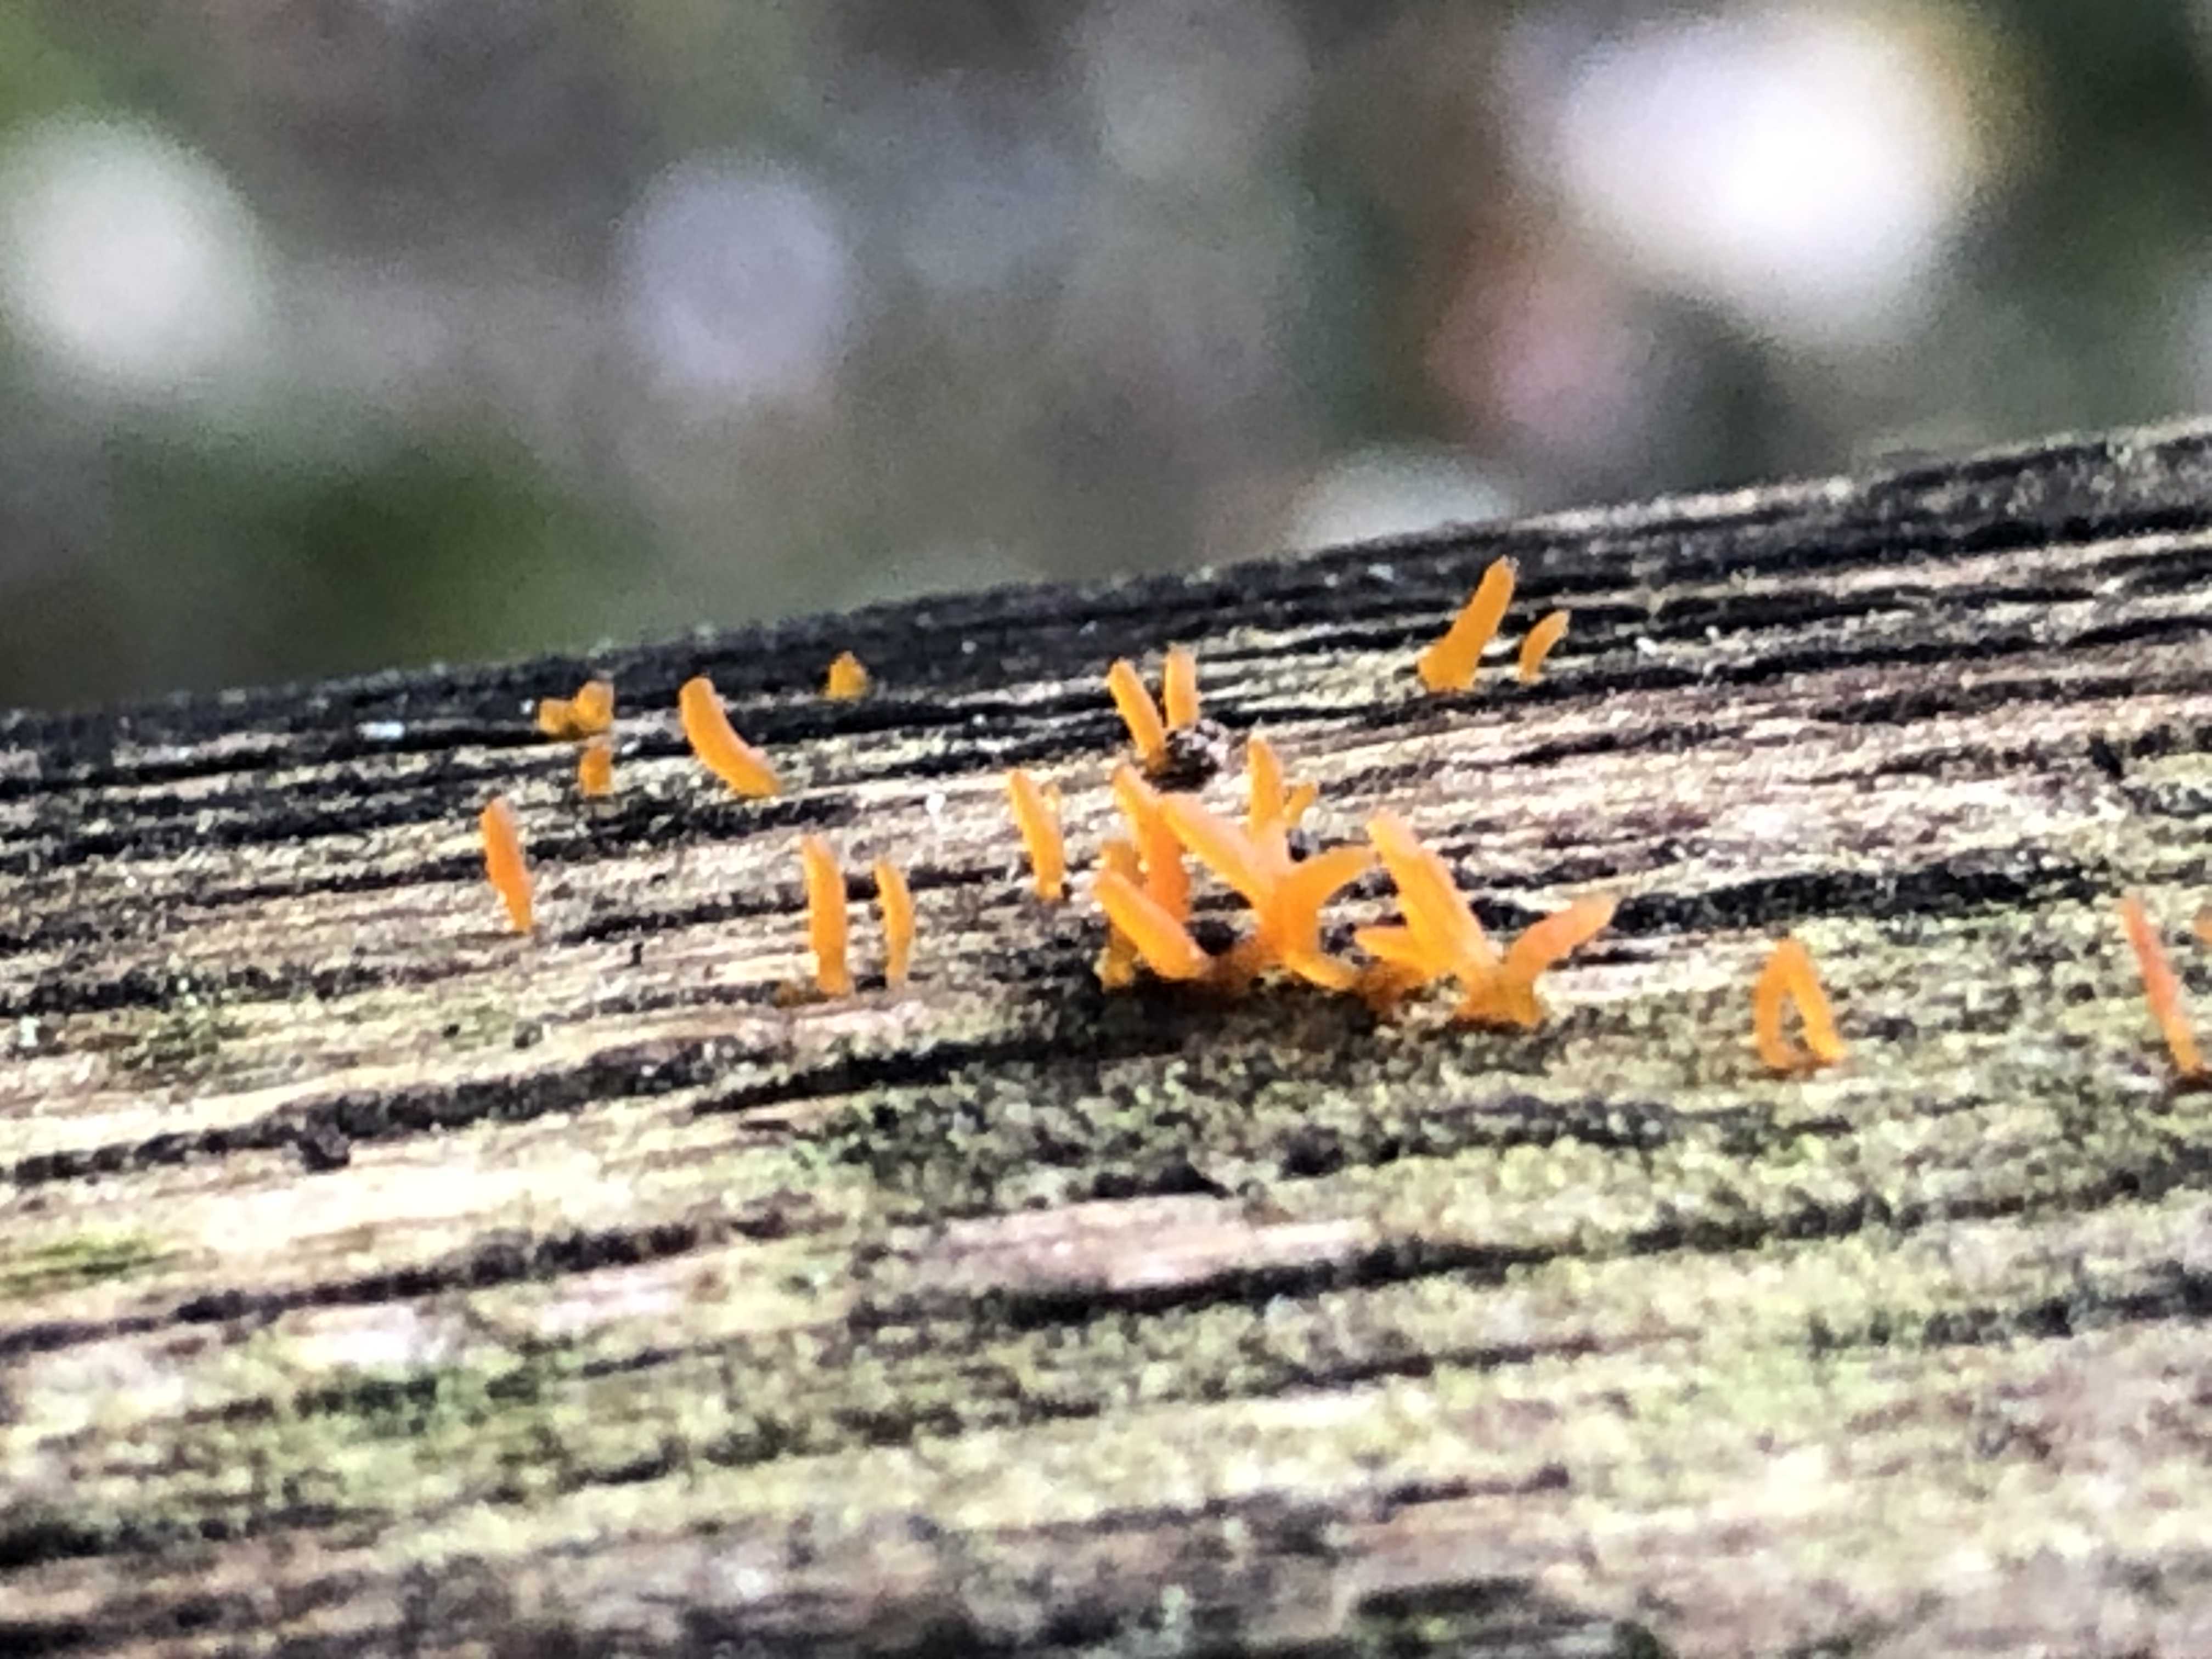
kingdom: Fungi
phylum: Basidiomycota
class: Dacrymycetes
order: Dacrymycetales
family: Dacrymycetaceae
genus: Calocera
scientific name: Calocera cornea
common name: liden guldgaffel
